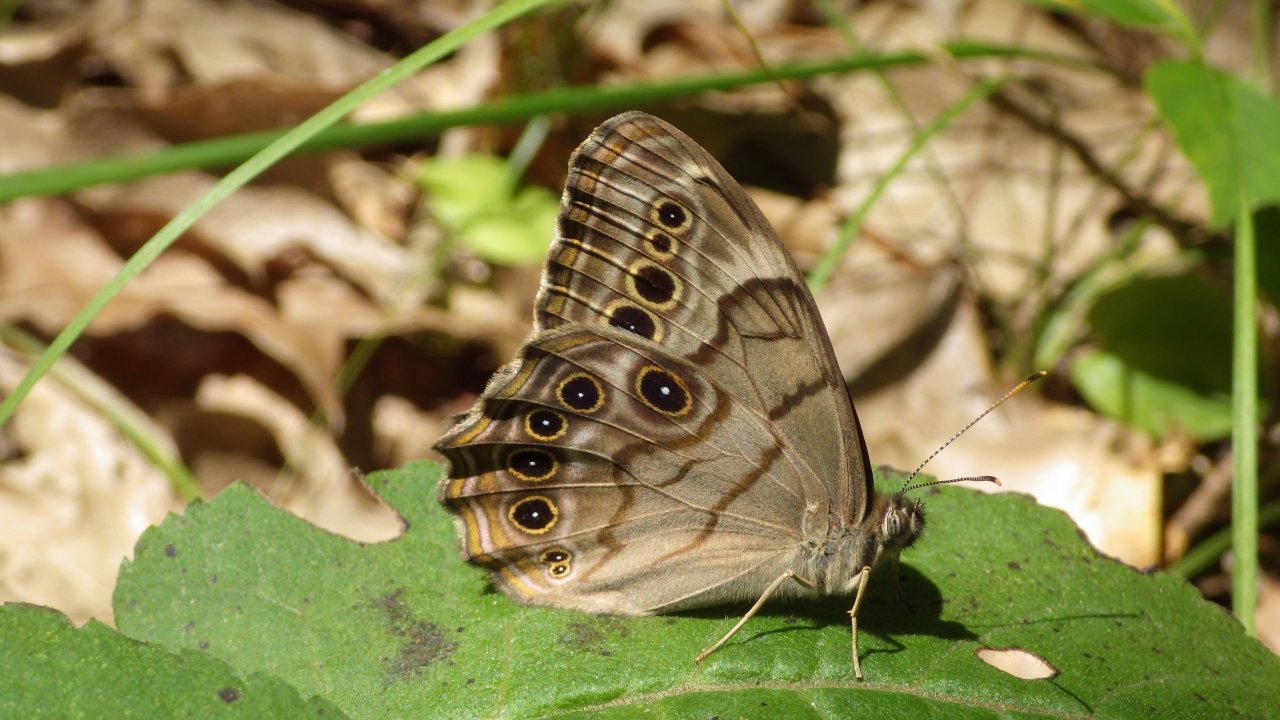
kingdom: Animalia
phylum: Arthropoda
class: Insecta
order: Lepidoptera
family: Nymphalidae
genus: Lethe
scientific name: Lethe anthedon
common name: Northern Pearly-Eye
